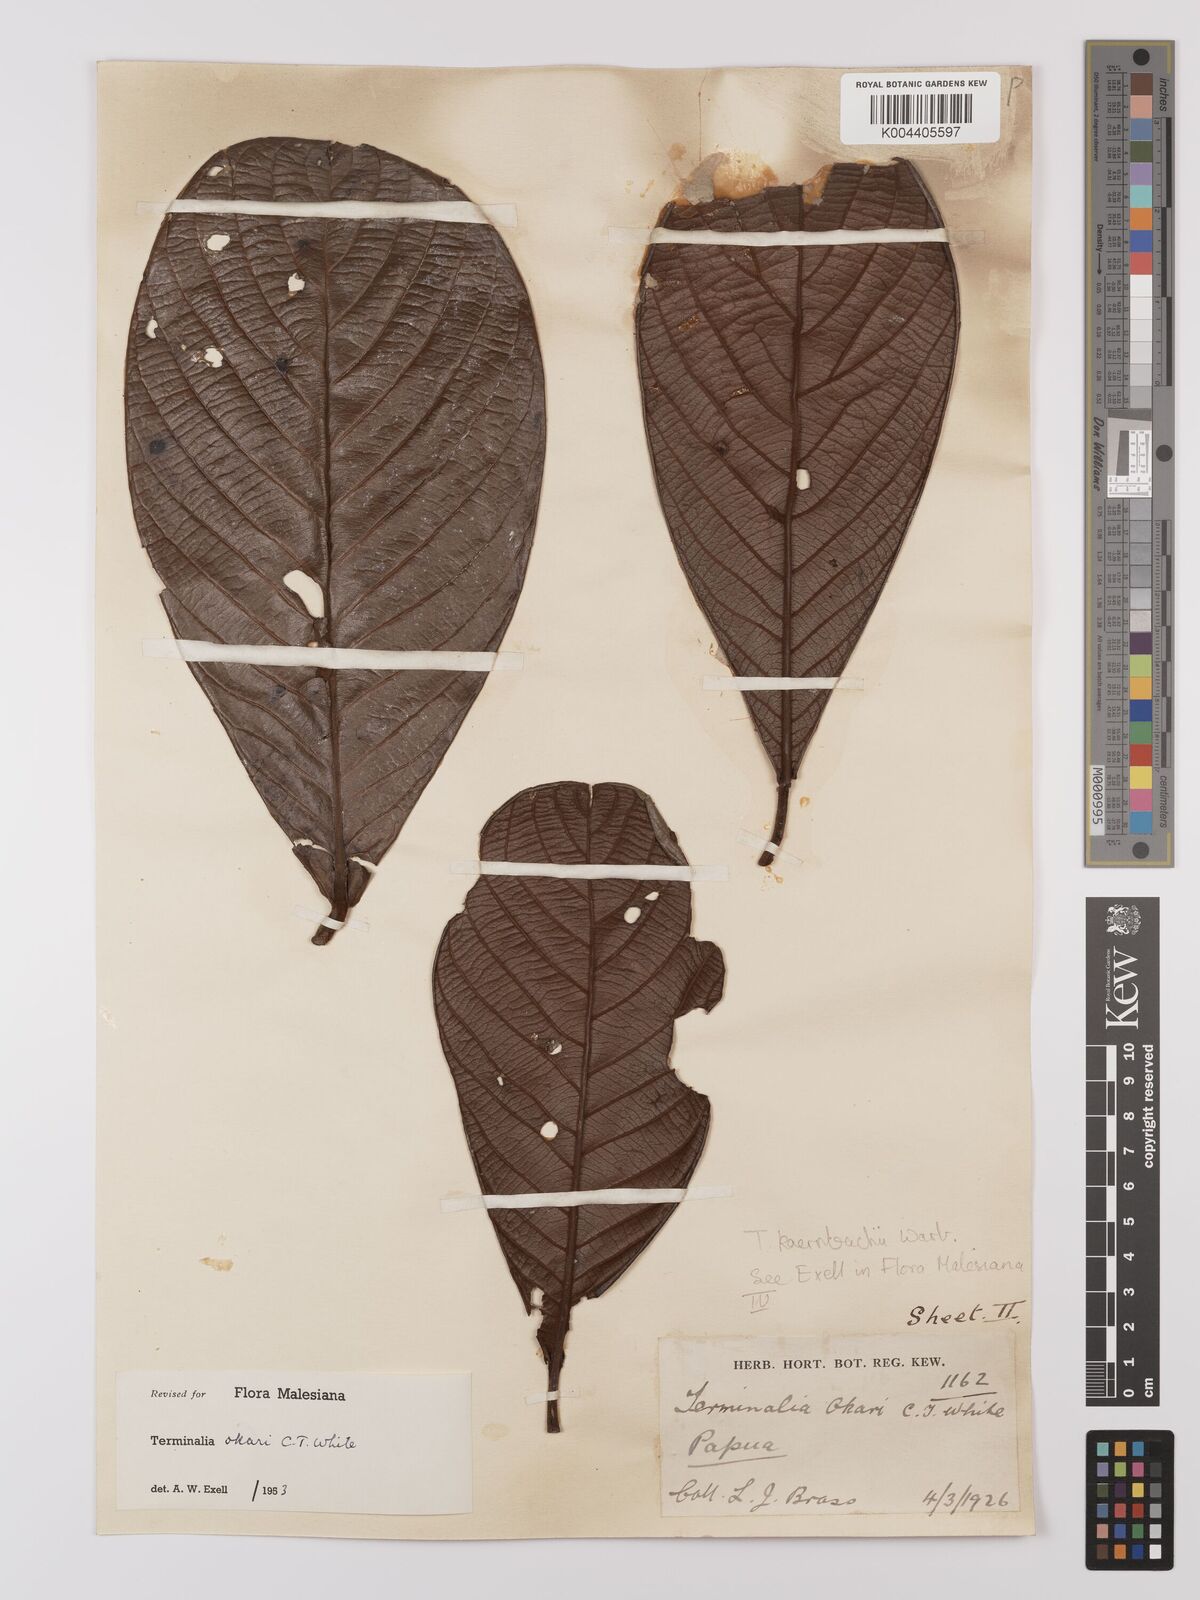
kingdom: Plantae
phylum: Tracheophyta
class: Magnoliopsida
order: Myrtales
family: Combretaceae
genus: Terminalia
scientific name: Terminalia kaernbachii
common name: Okari-nut
